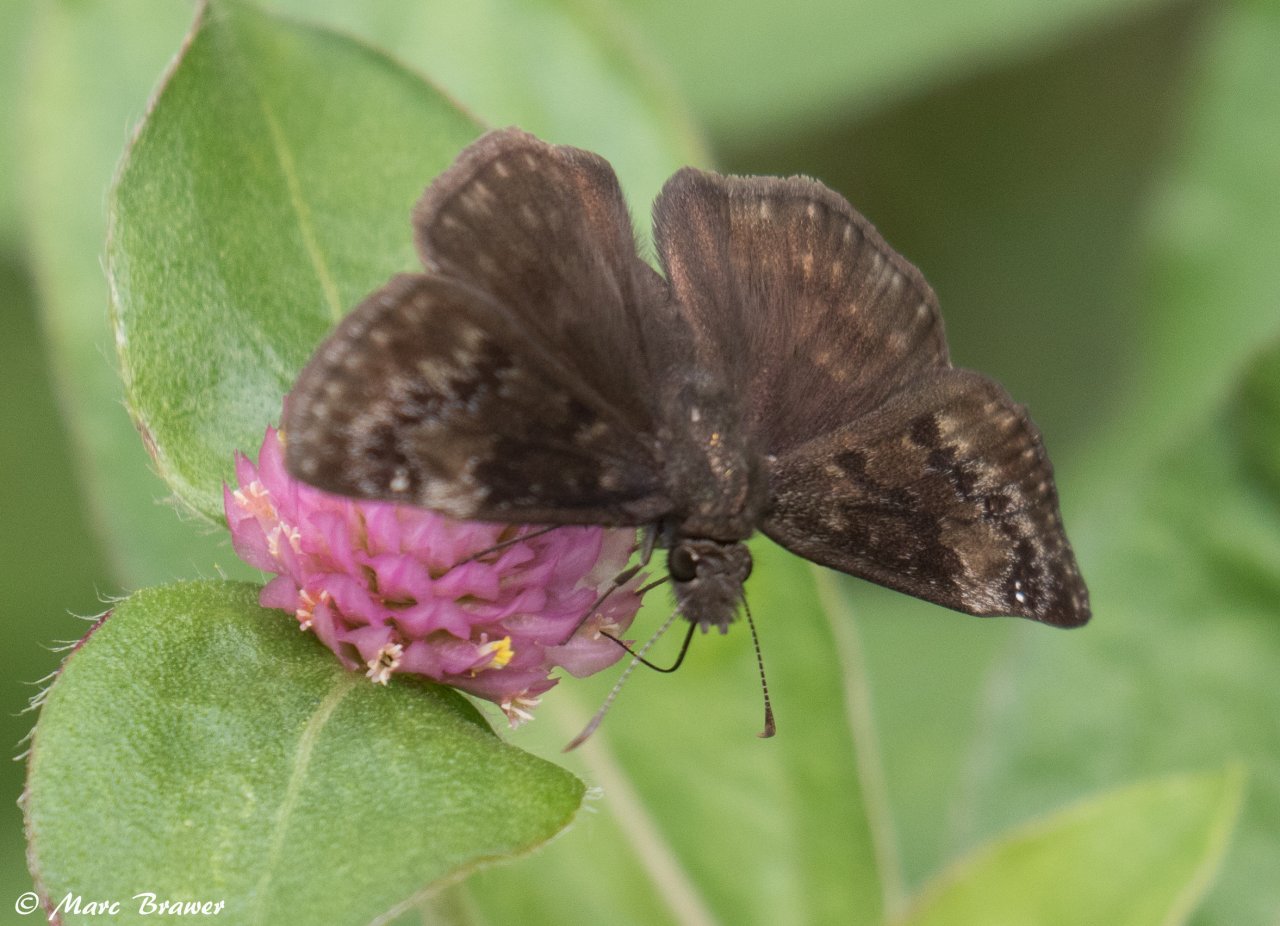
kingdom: Animalia
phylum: Arthropoda
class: Insecta
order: Lepidoptera
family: Hesperiidae
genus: Gesta
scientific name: Gesta
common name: Wild Indigo Duskywing
